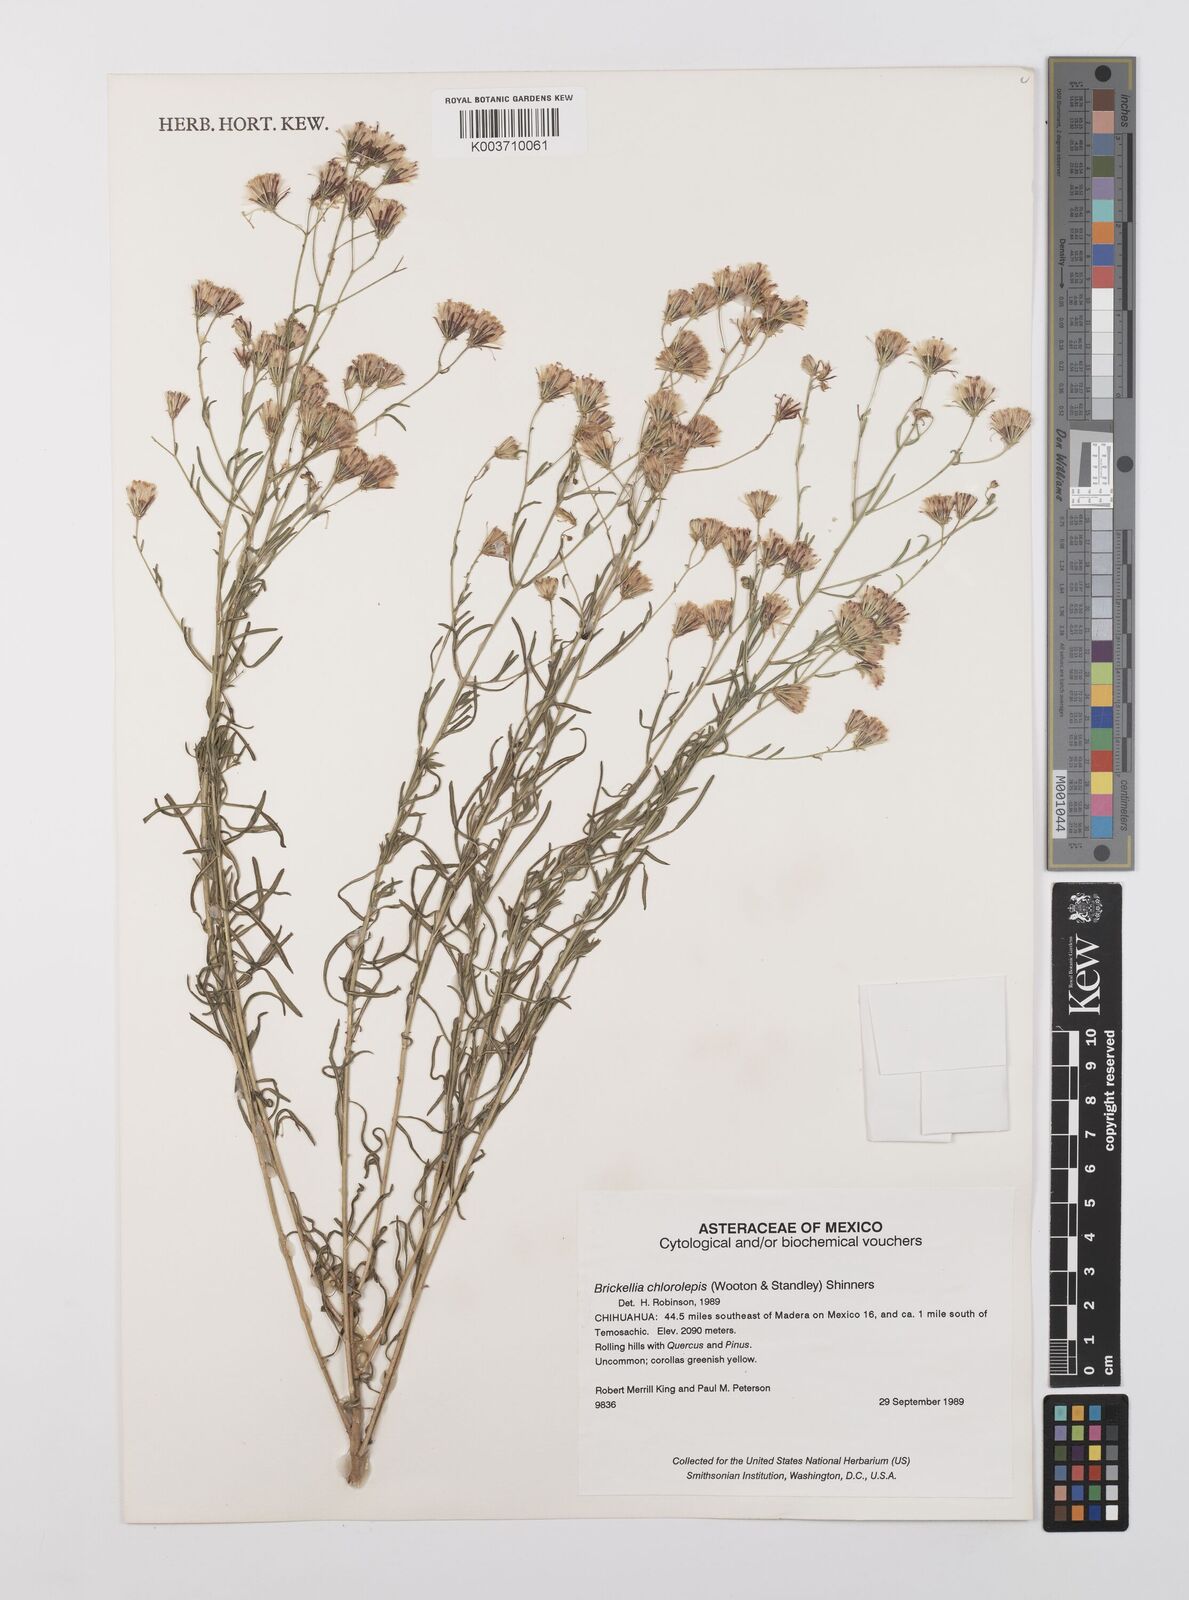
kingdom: Plantae
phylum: Tracheophyta
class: Magnoliopsida
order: Asterales
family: Asteraceae
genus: Brickellia
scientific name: Brickellia leptophylla
